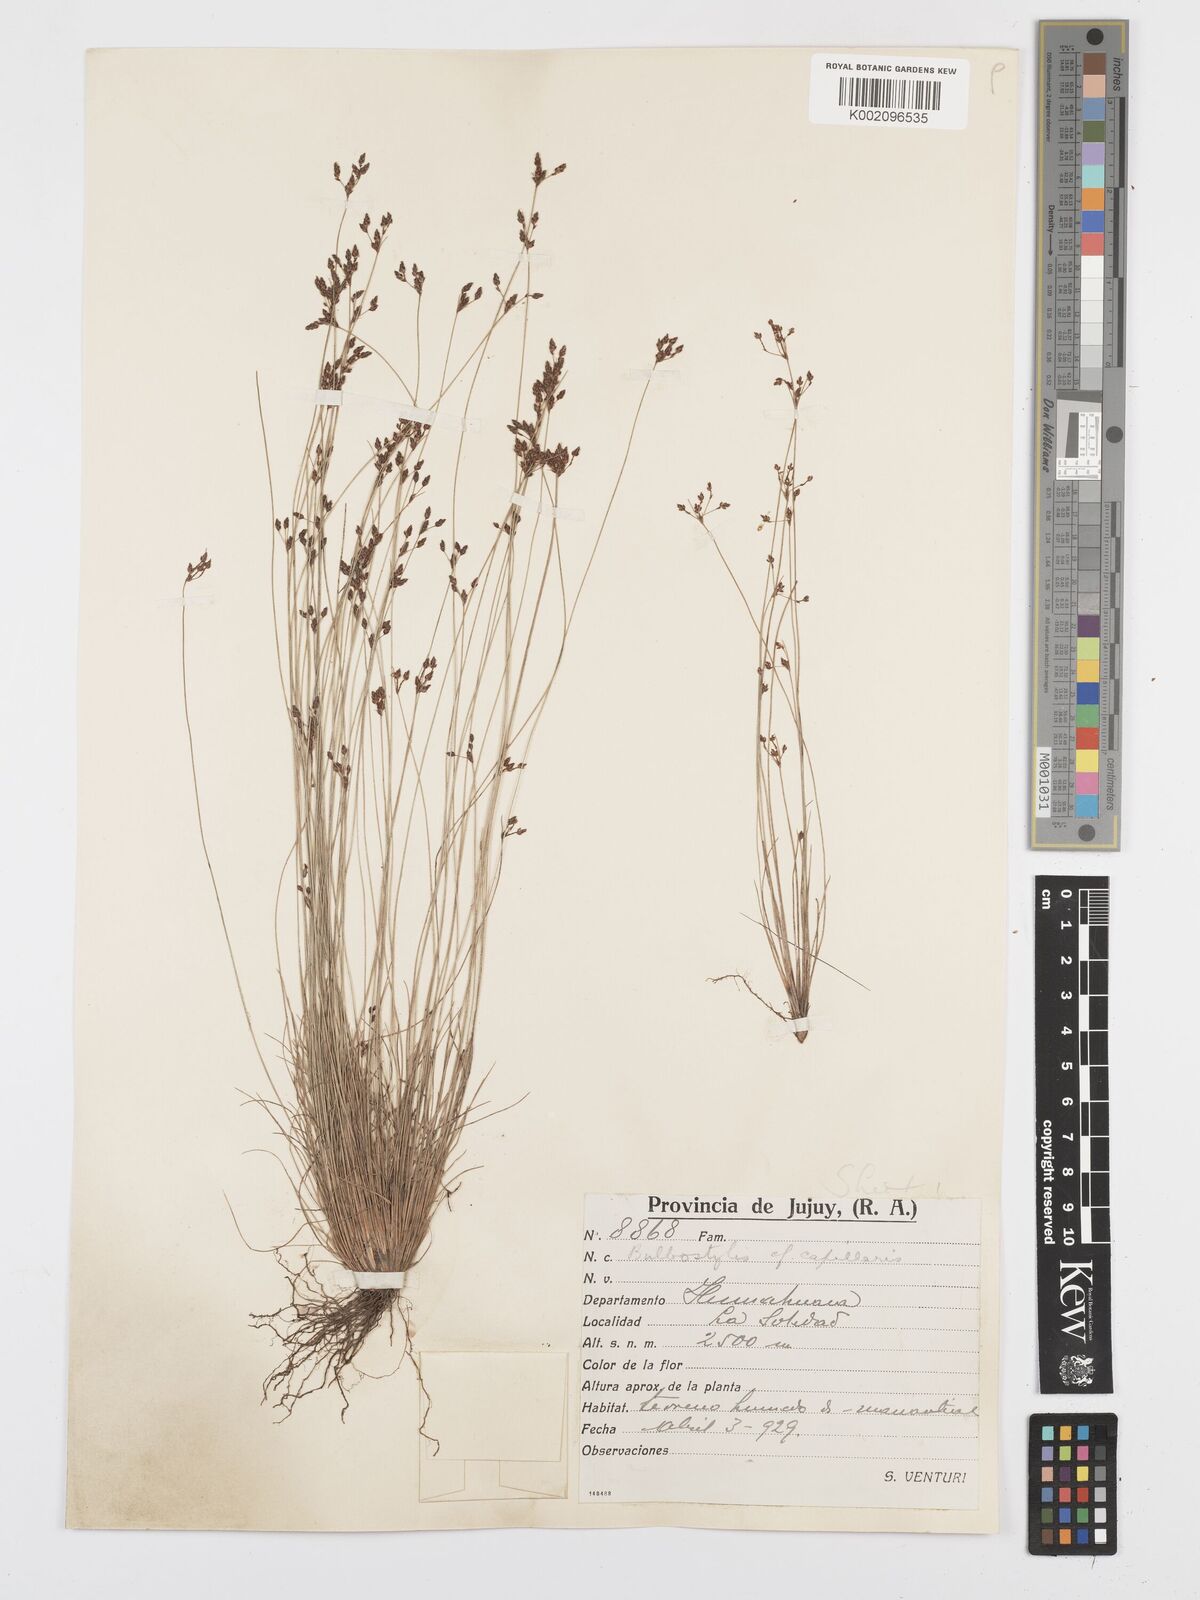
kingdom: Plantae
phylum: Tracheophyta
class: Liliopsida
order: Poales
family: Cyperaceae
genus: Bulbostylis
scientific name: Bulbostylis capillaris
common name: Densetuft hairsedge
